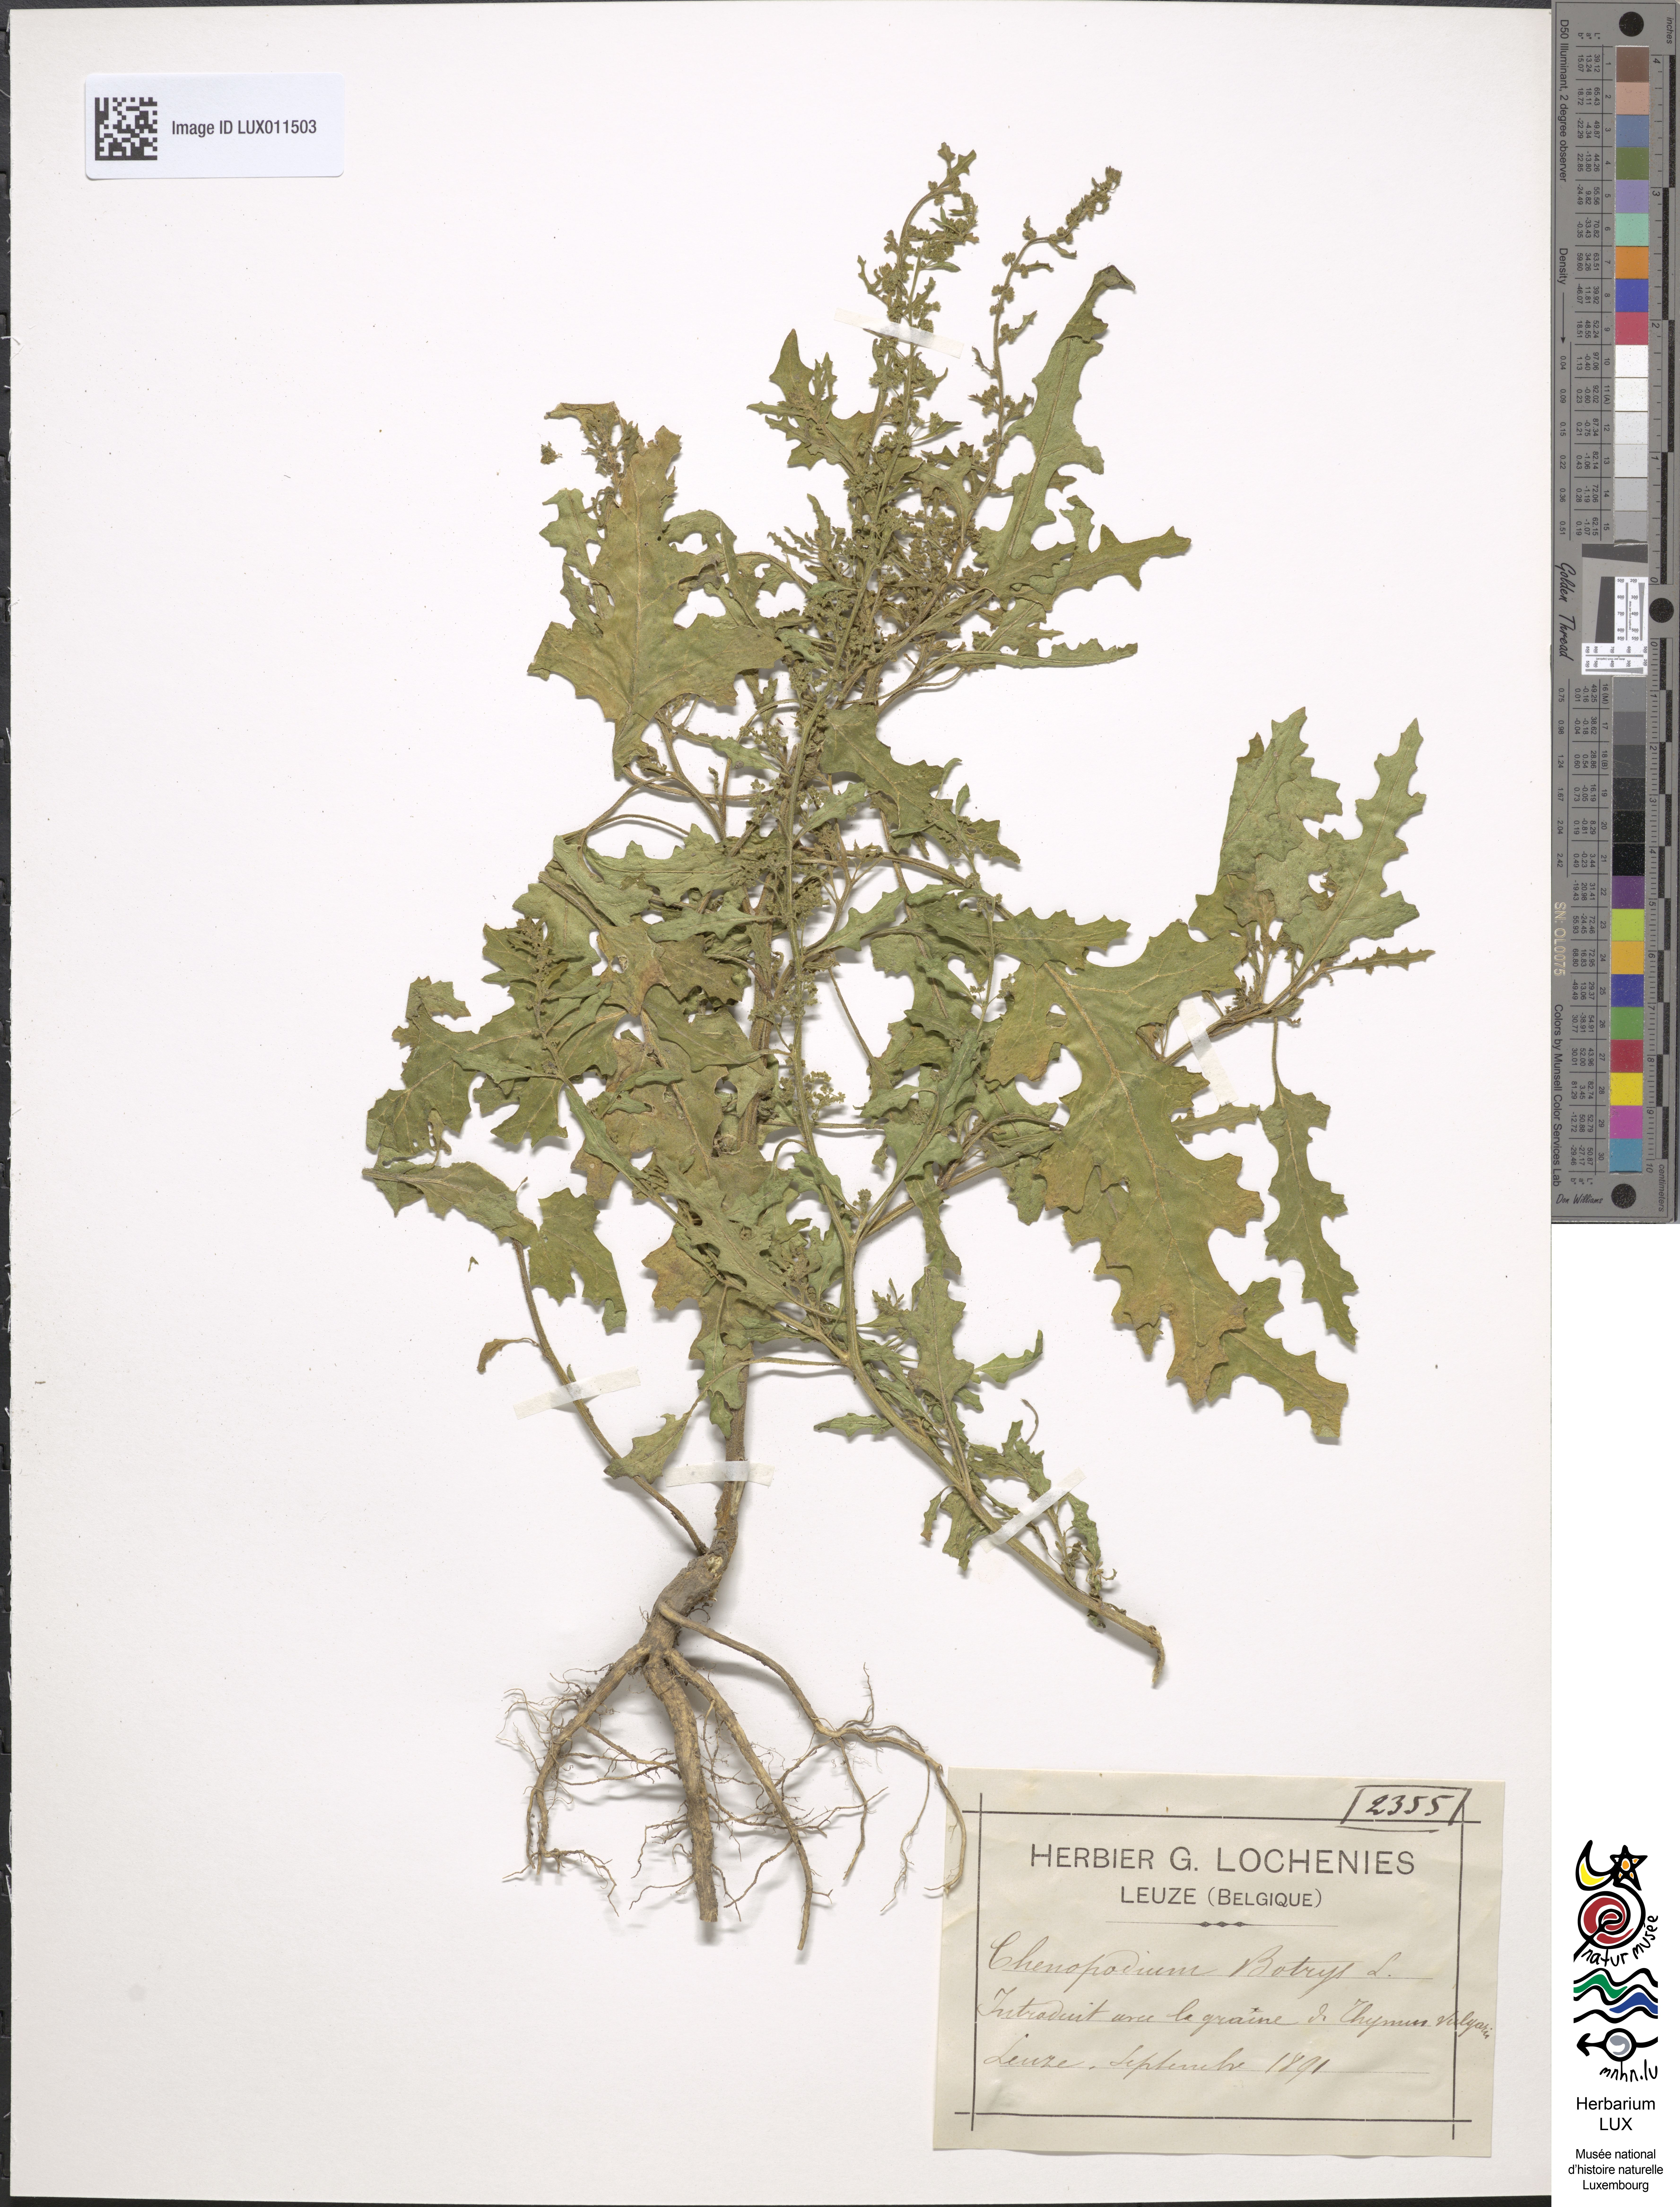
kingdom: Plantae
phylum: Tracheophyta
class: Magnoliopsida
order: Caryophyllales
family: Amaranthaceae
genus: Dysphania
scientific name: Dysphania botrys
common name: Feather-geranium
